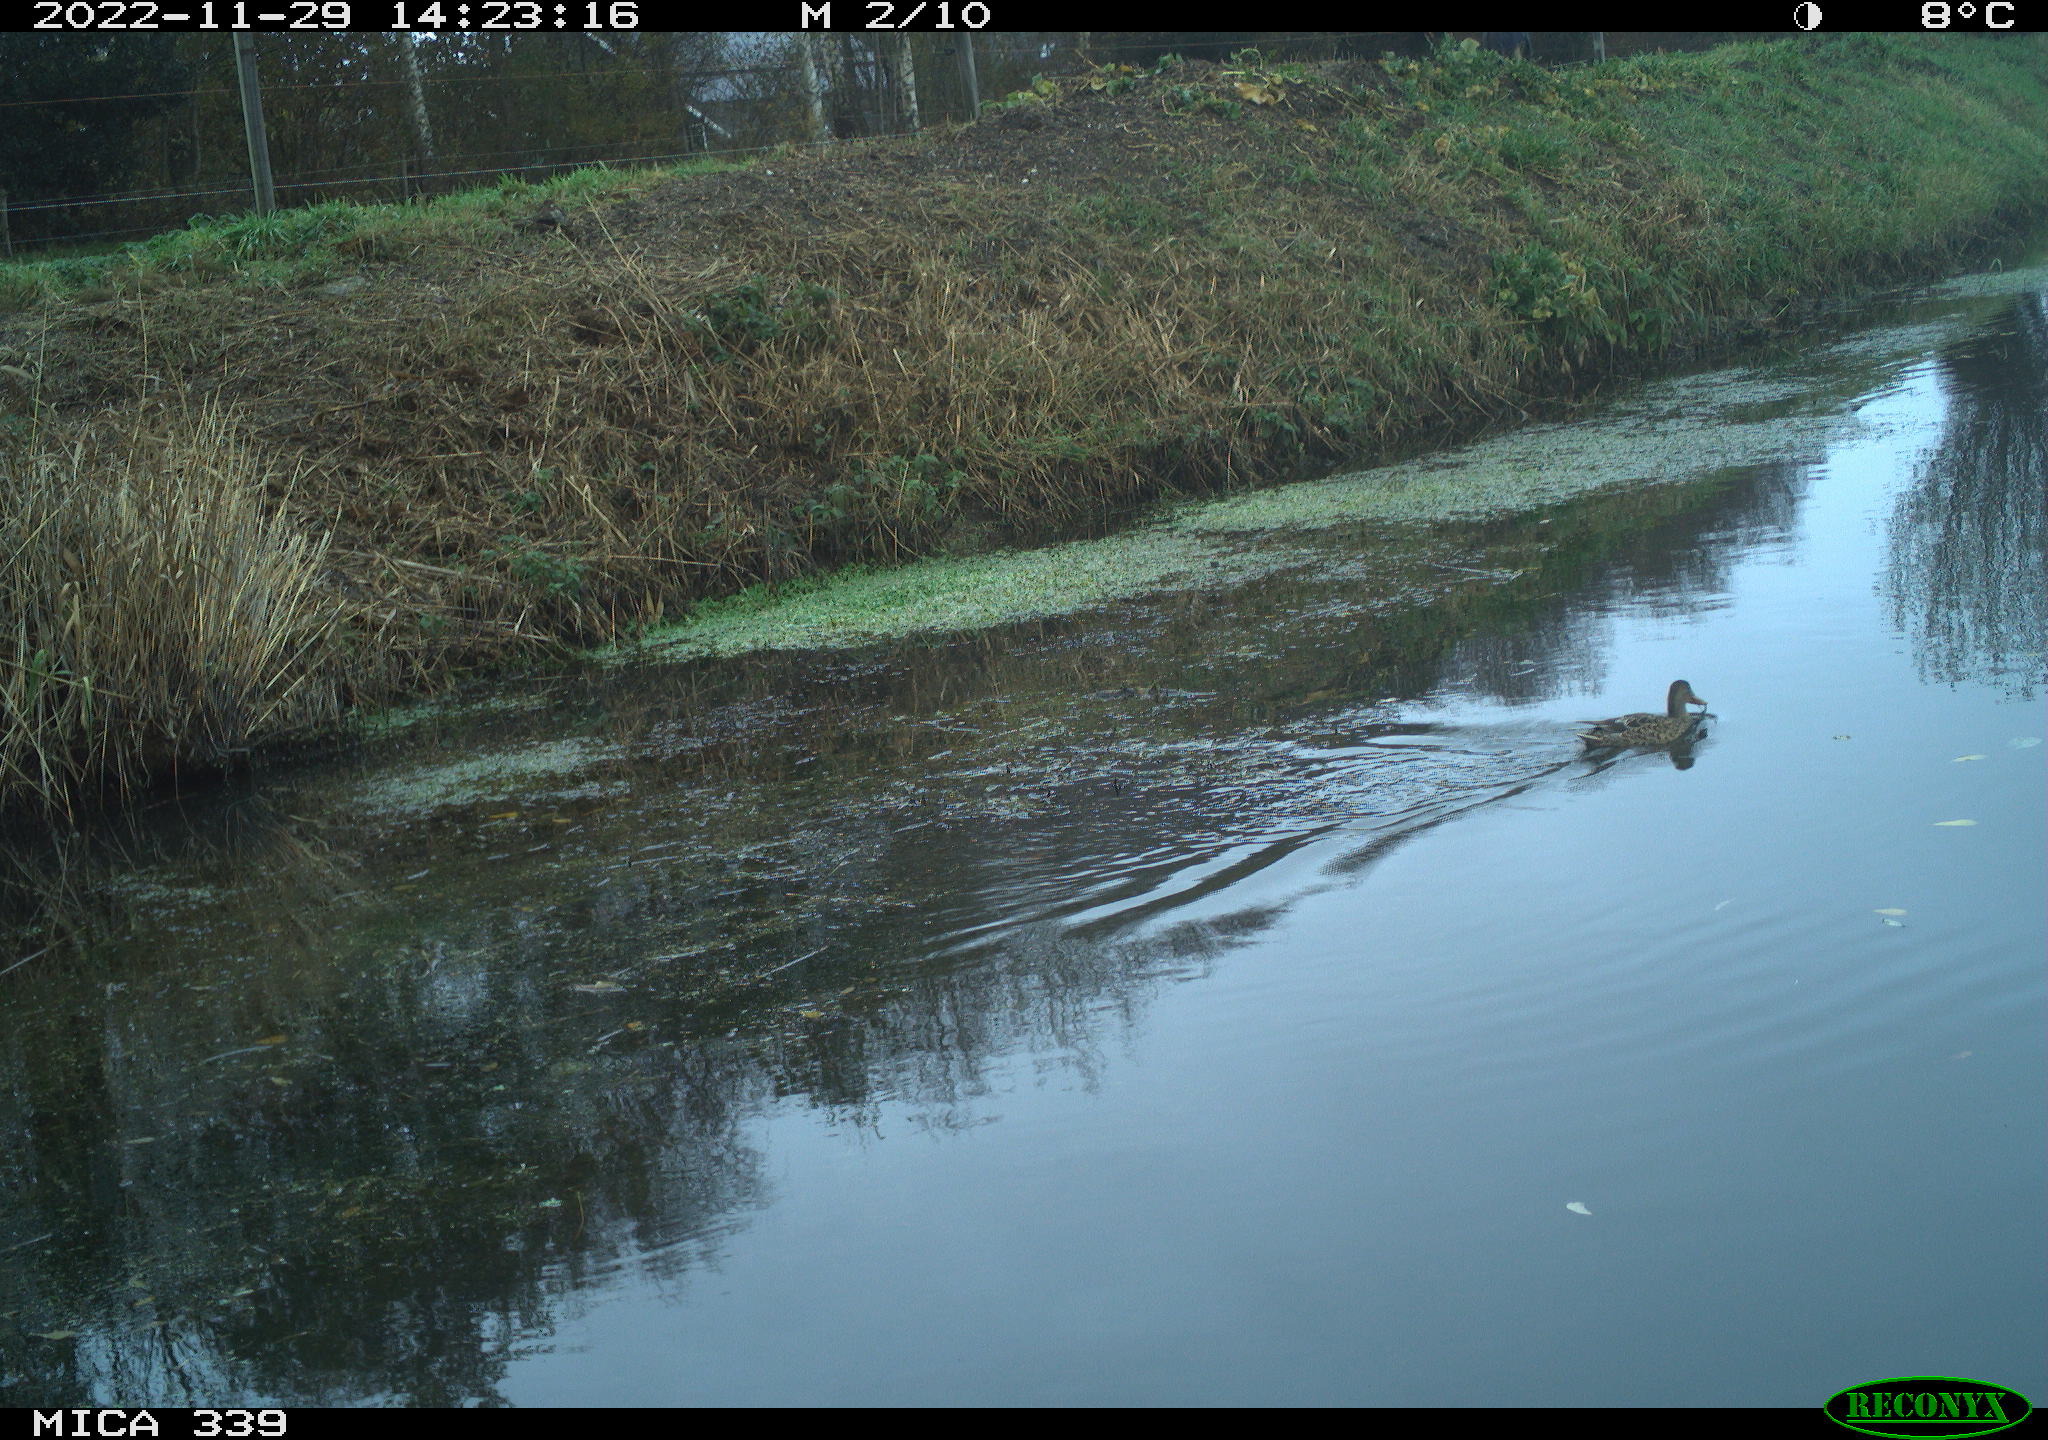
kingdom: Animalia
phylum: Chordata
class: Aves
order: Anseriformes
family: Anatidae
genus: Anas
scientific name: Anas
